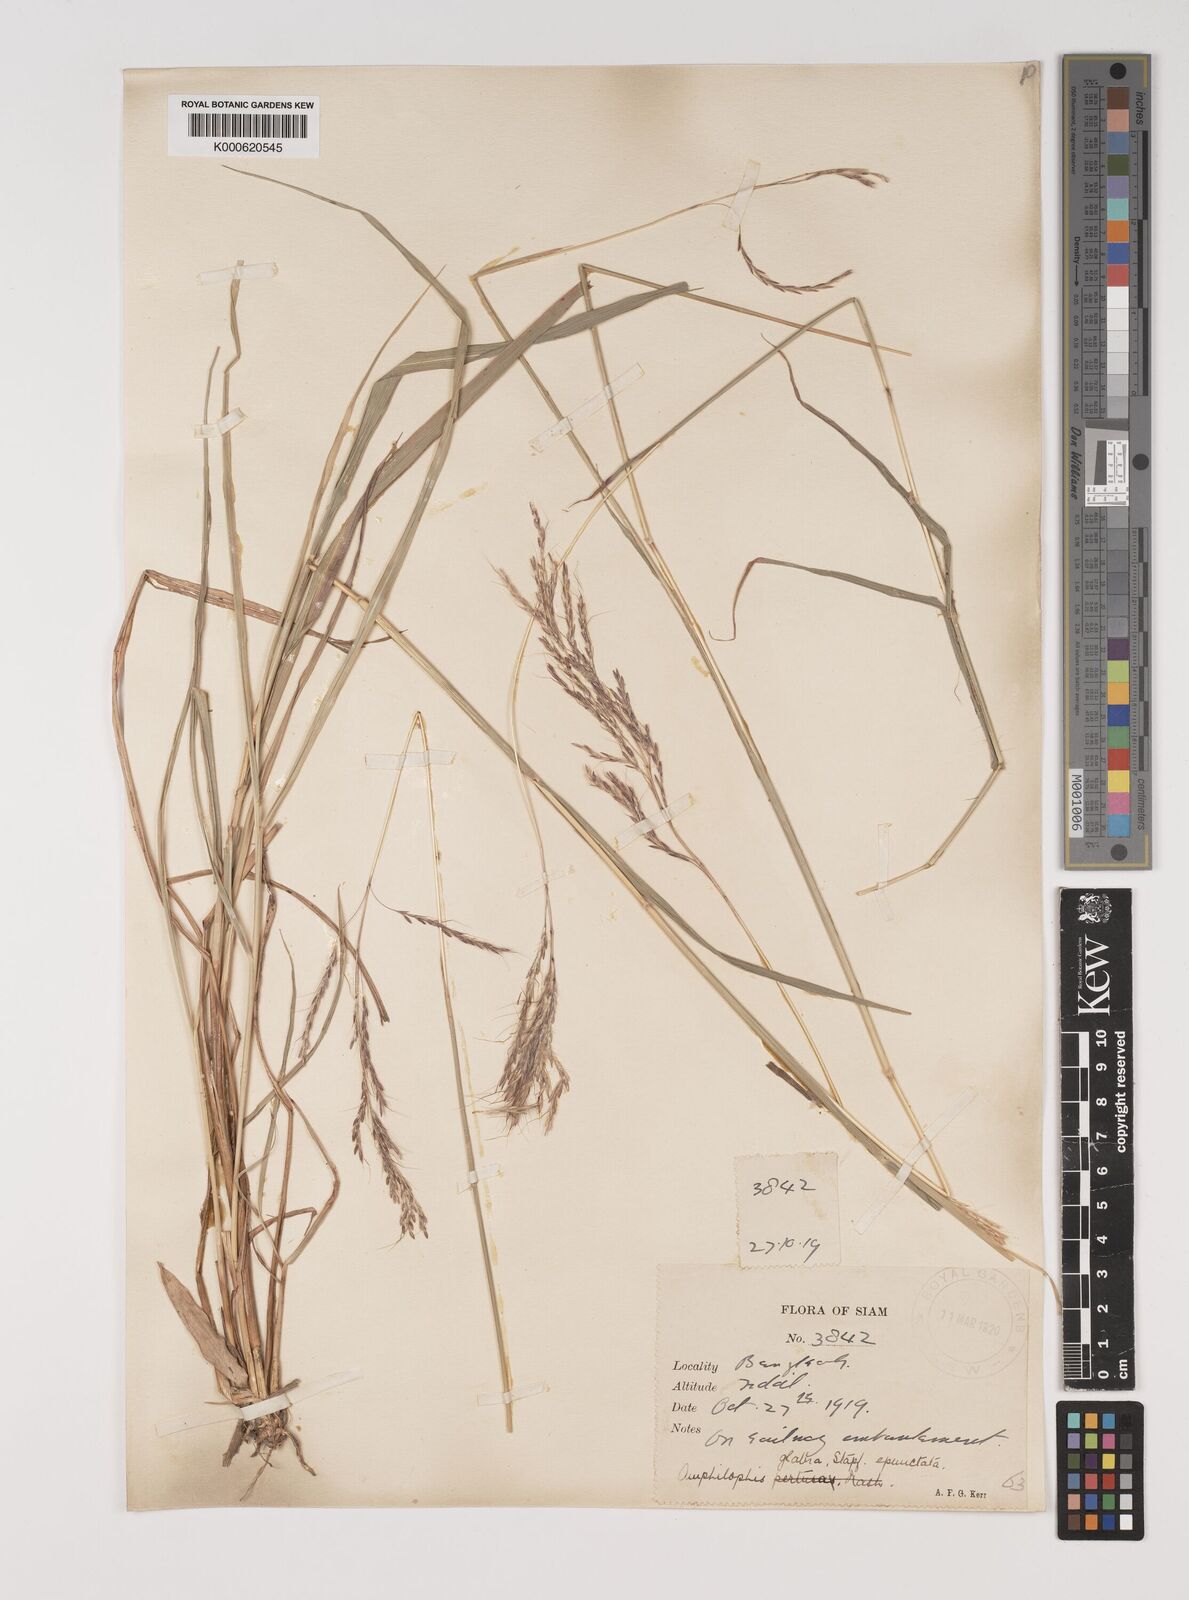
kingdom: Plantae
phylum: Tracheophyta
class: Liliopsida
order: Poales
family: Poaceae
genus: Bothriochloa
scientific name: Bothriochloa bladhii
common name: Caucasian bluestem
